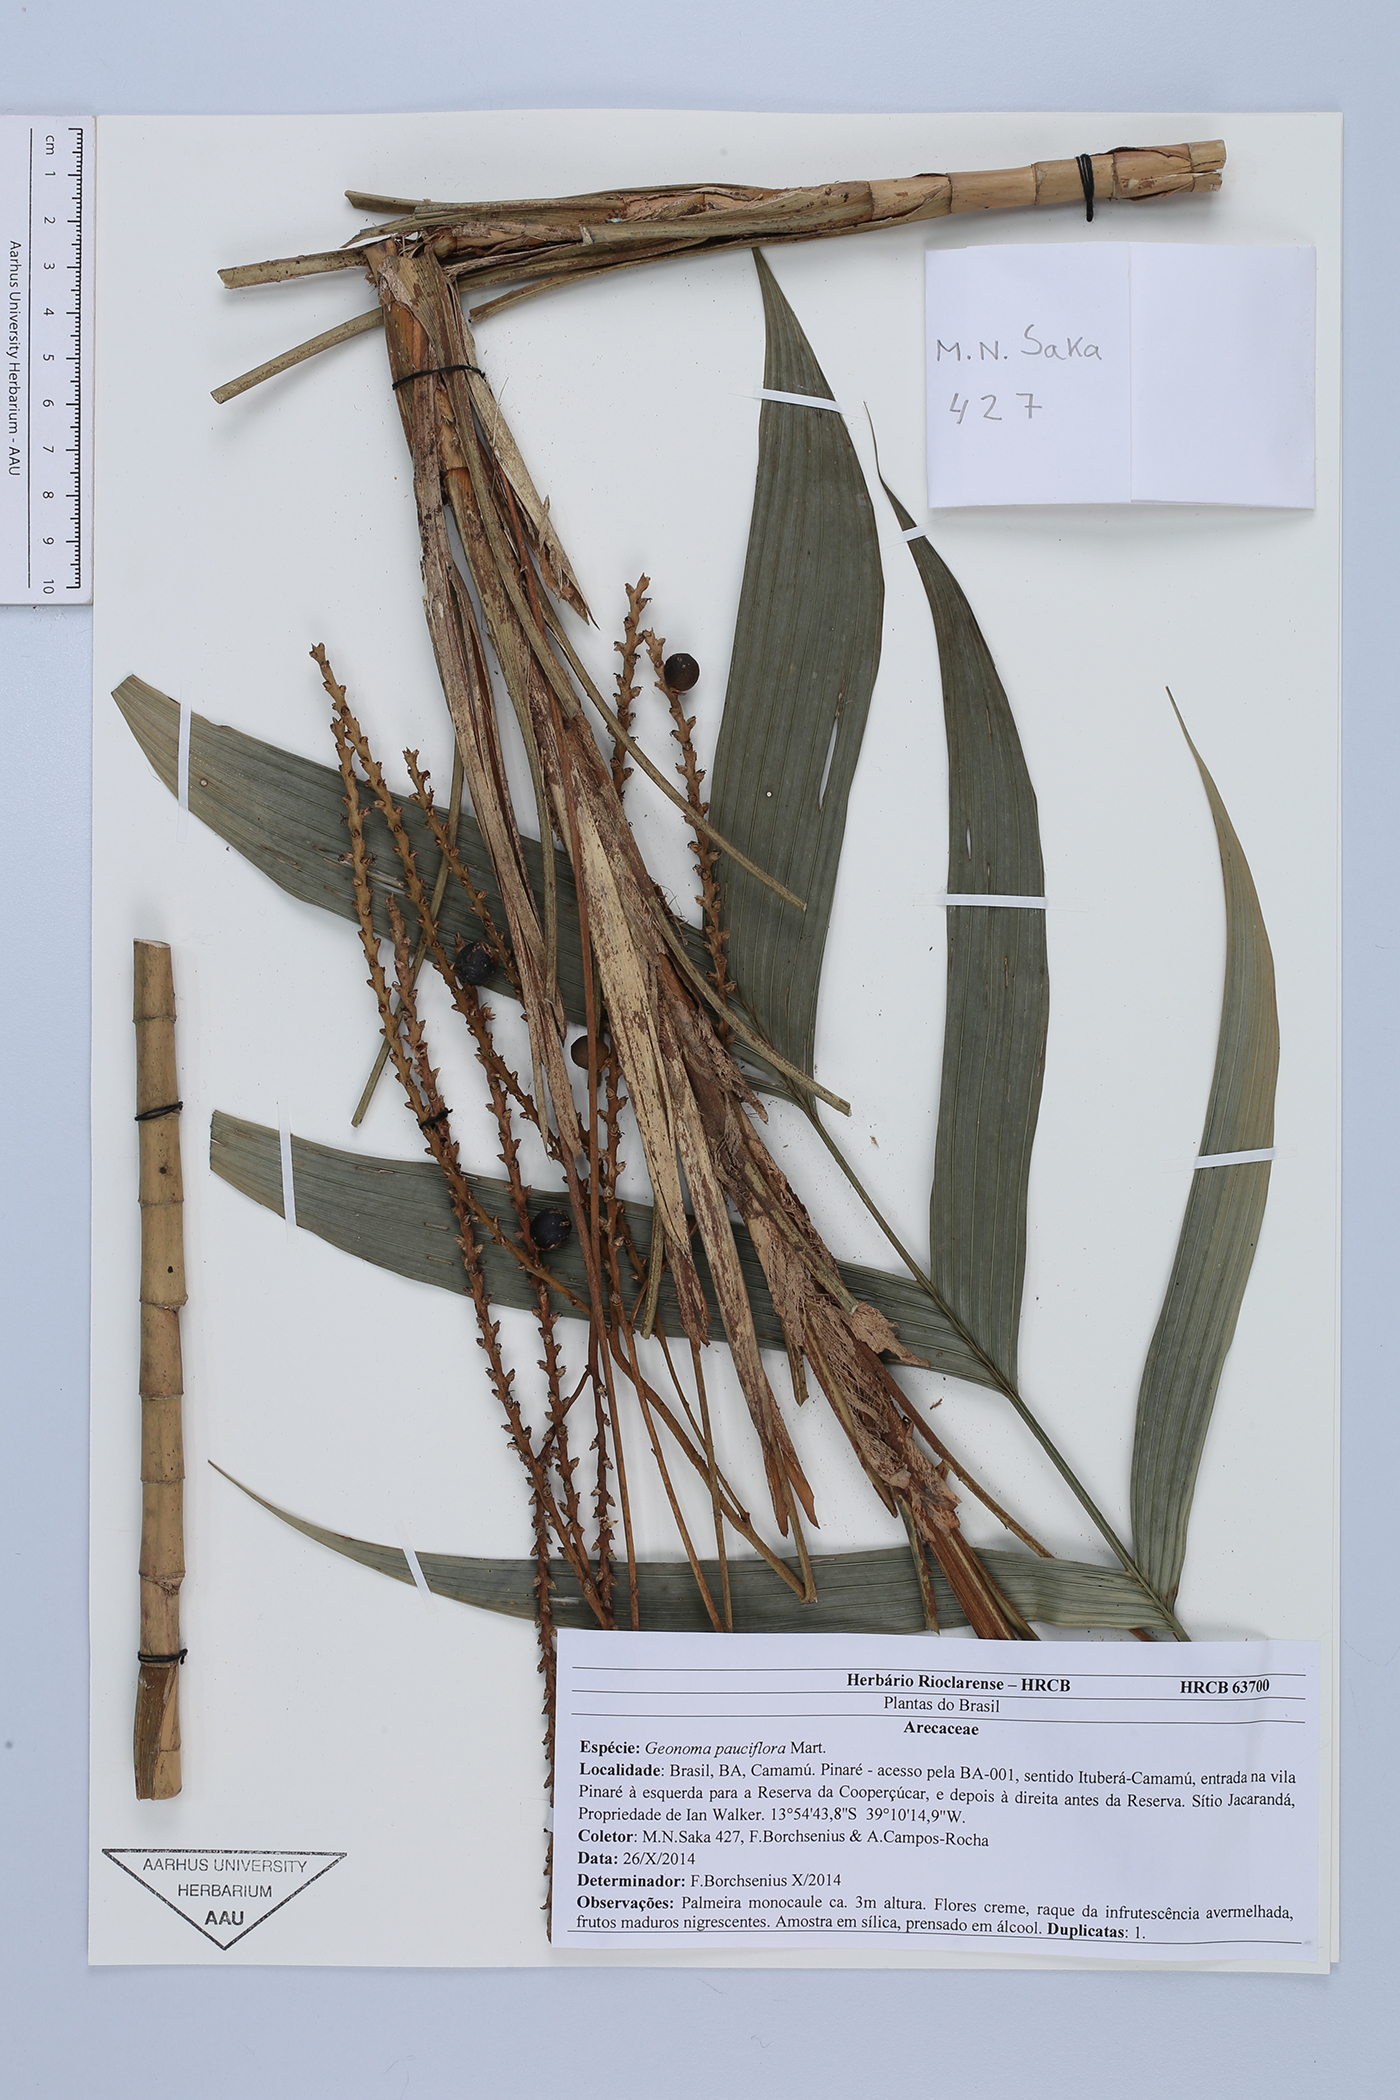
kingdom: Plantae
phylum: Tracheophyta
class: Liliopsida
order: Arecales
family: Arecaceae
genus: Geonoma
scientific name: Geonoma pauciflora
